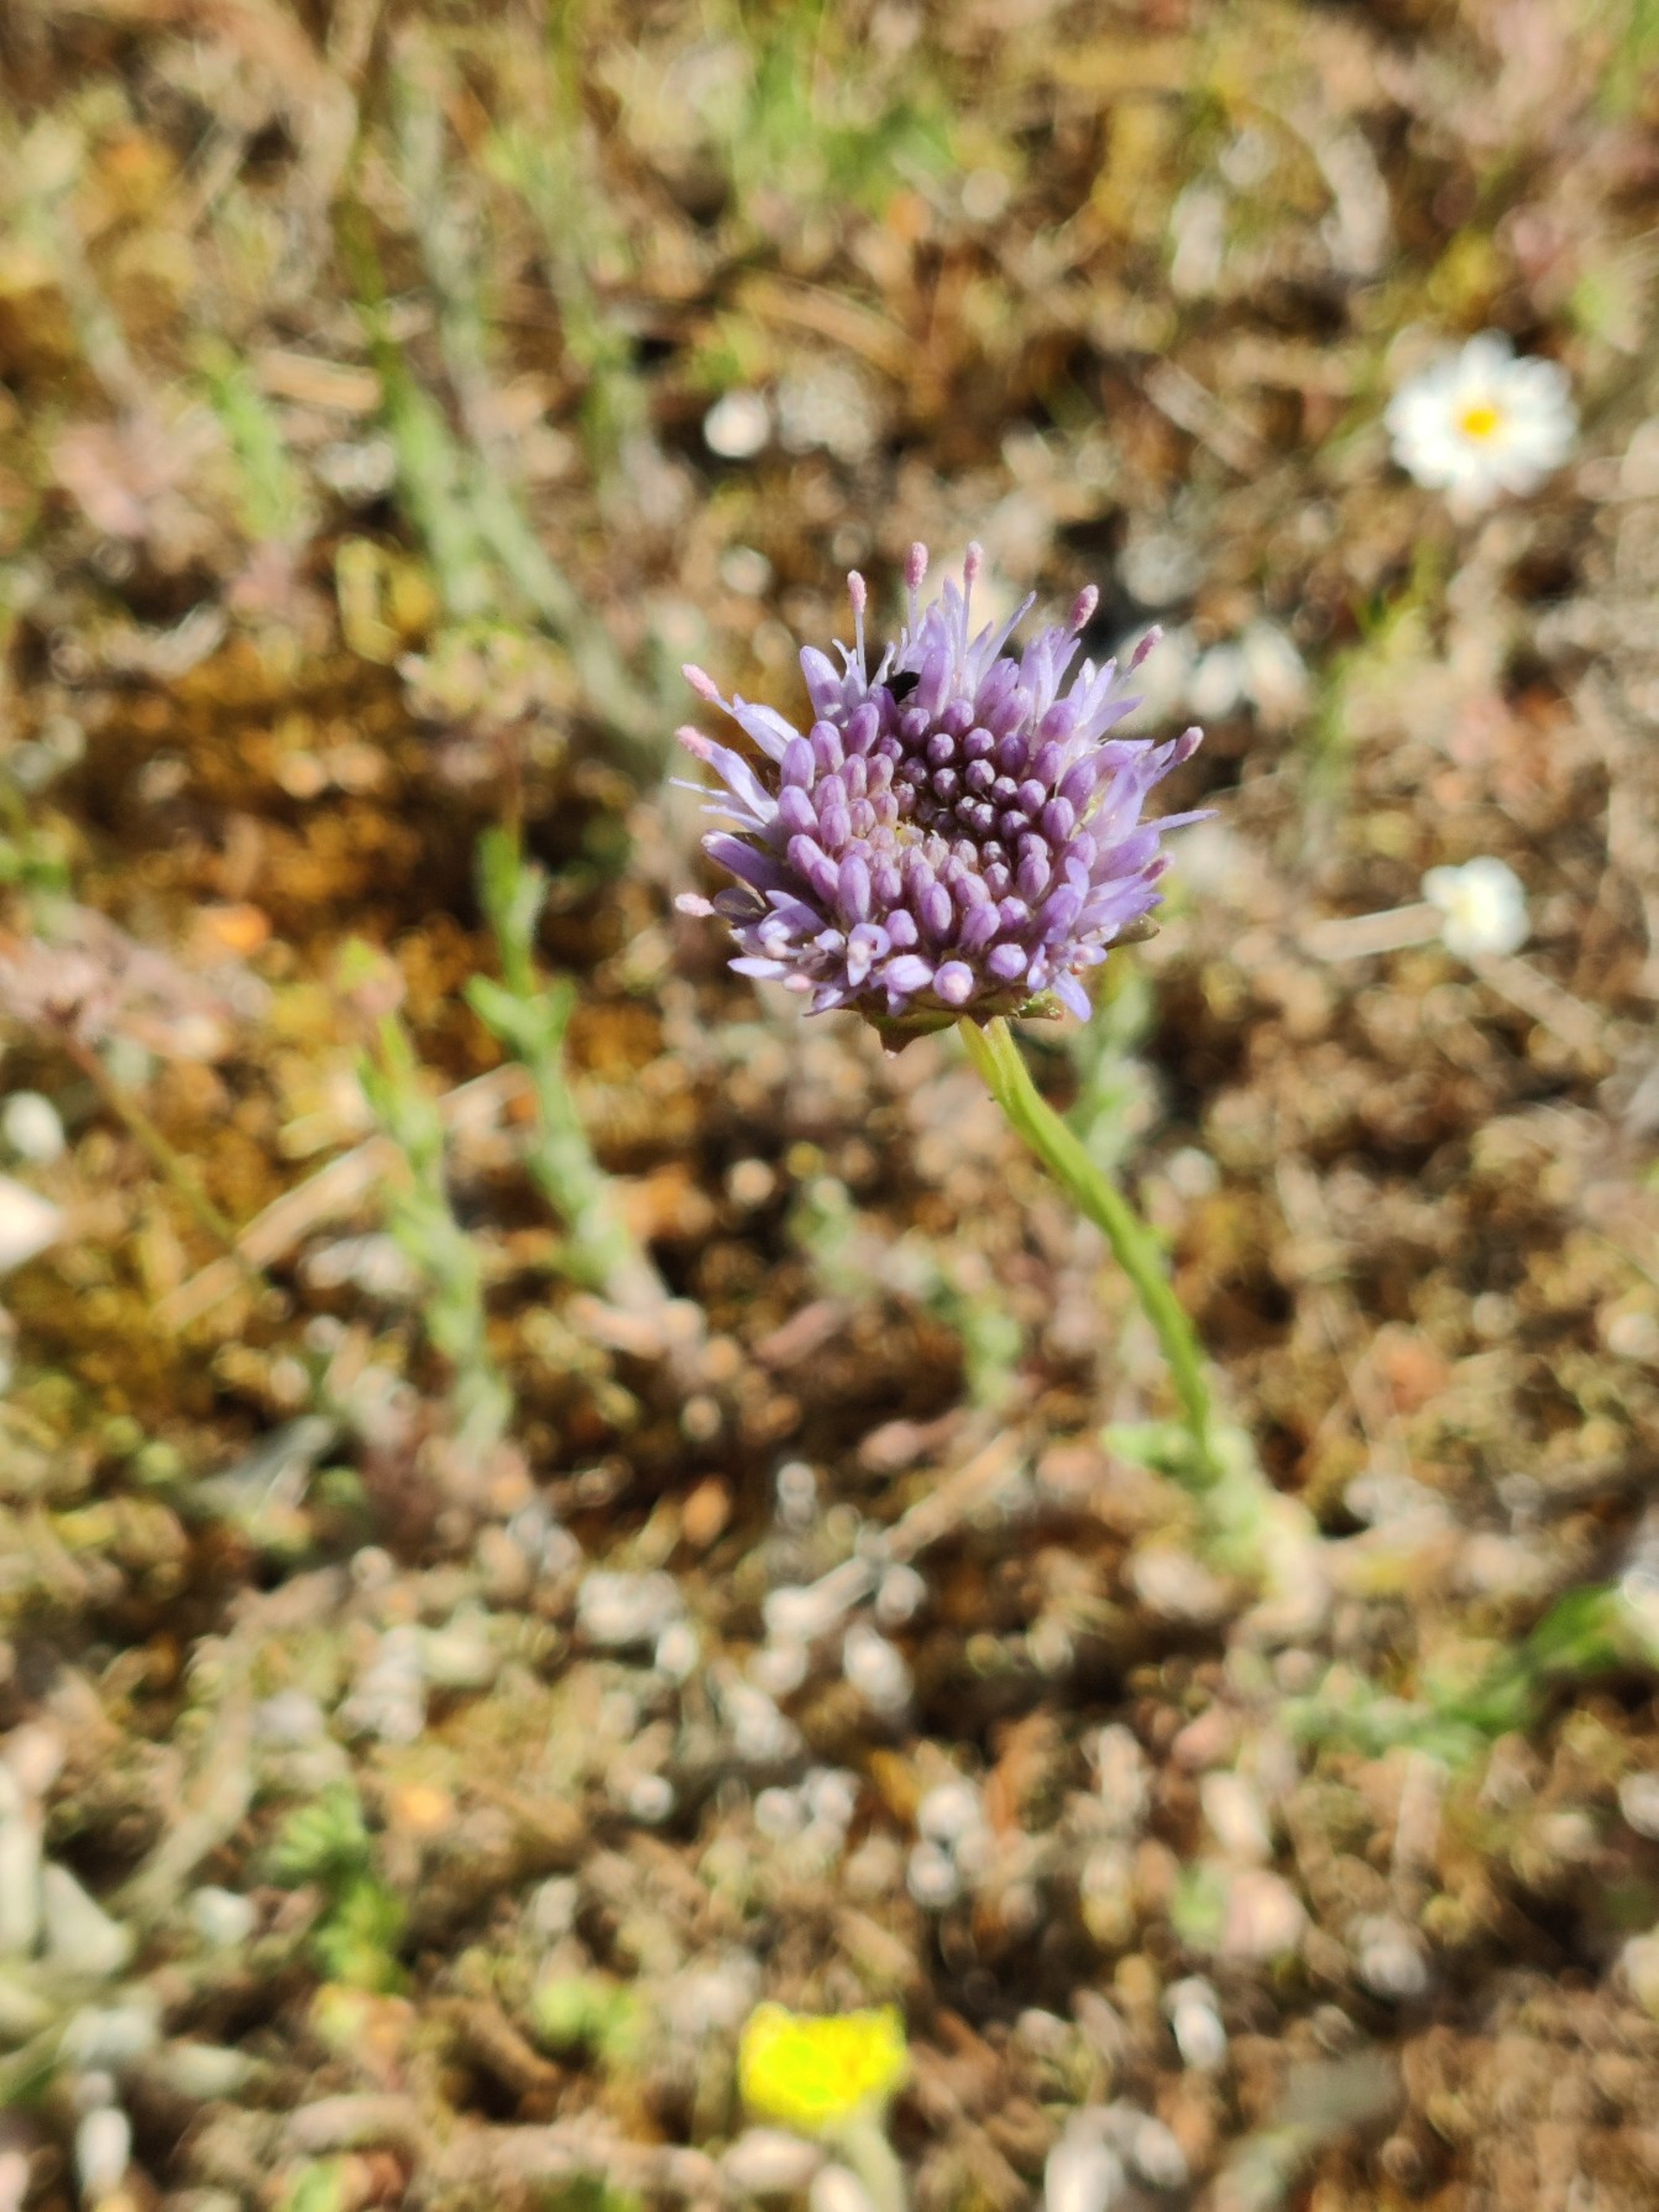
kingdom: Plantae
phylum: Tracheophyta
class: Magnoliopsida
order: Asterales
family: Campanulaceae
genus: Jasione
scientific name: Jasione montana
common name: Blåmunke
